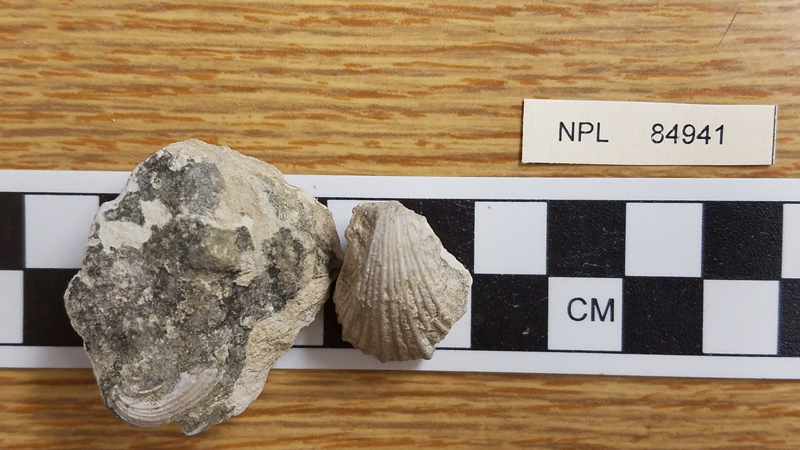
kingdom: Animalia
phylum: Mollusca
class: Bivalvia
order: Pectinida
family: Neitheidae
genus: Neithea
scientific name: Neithea occidentalis
